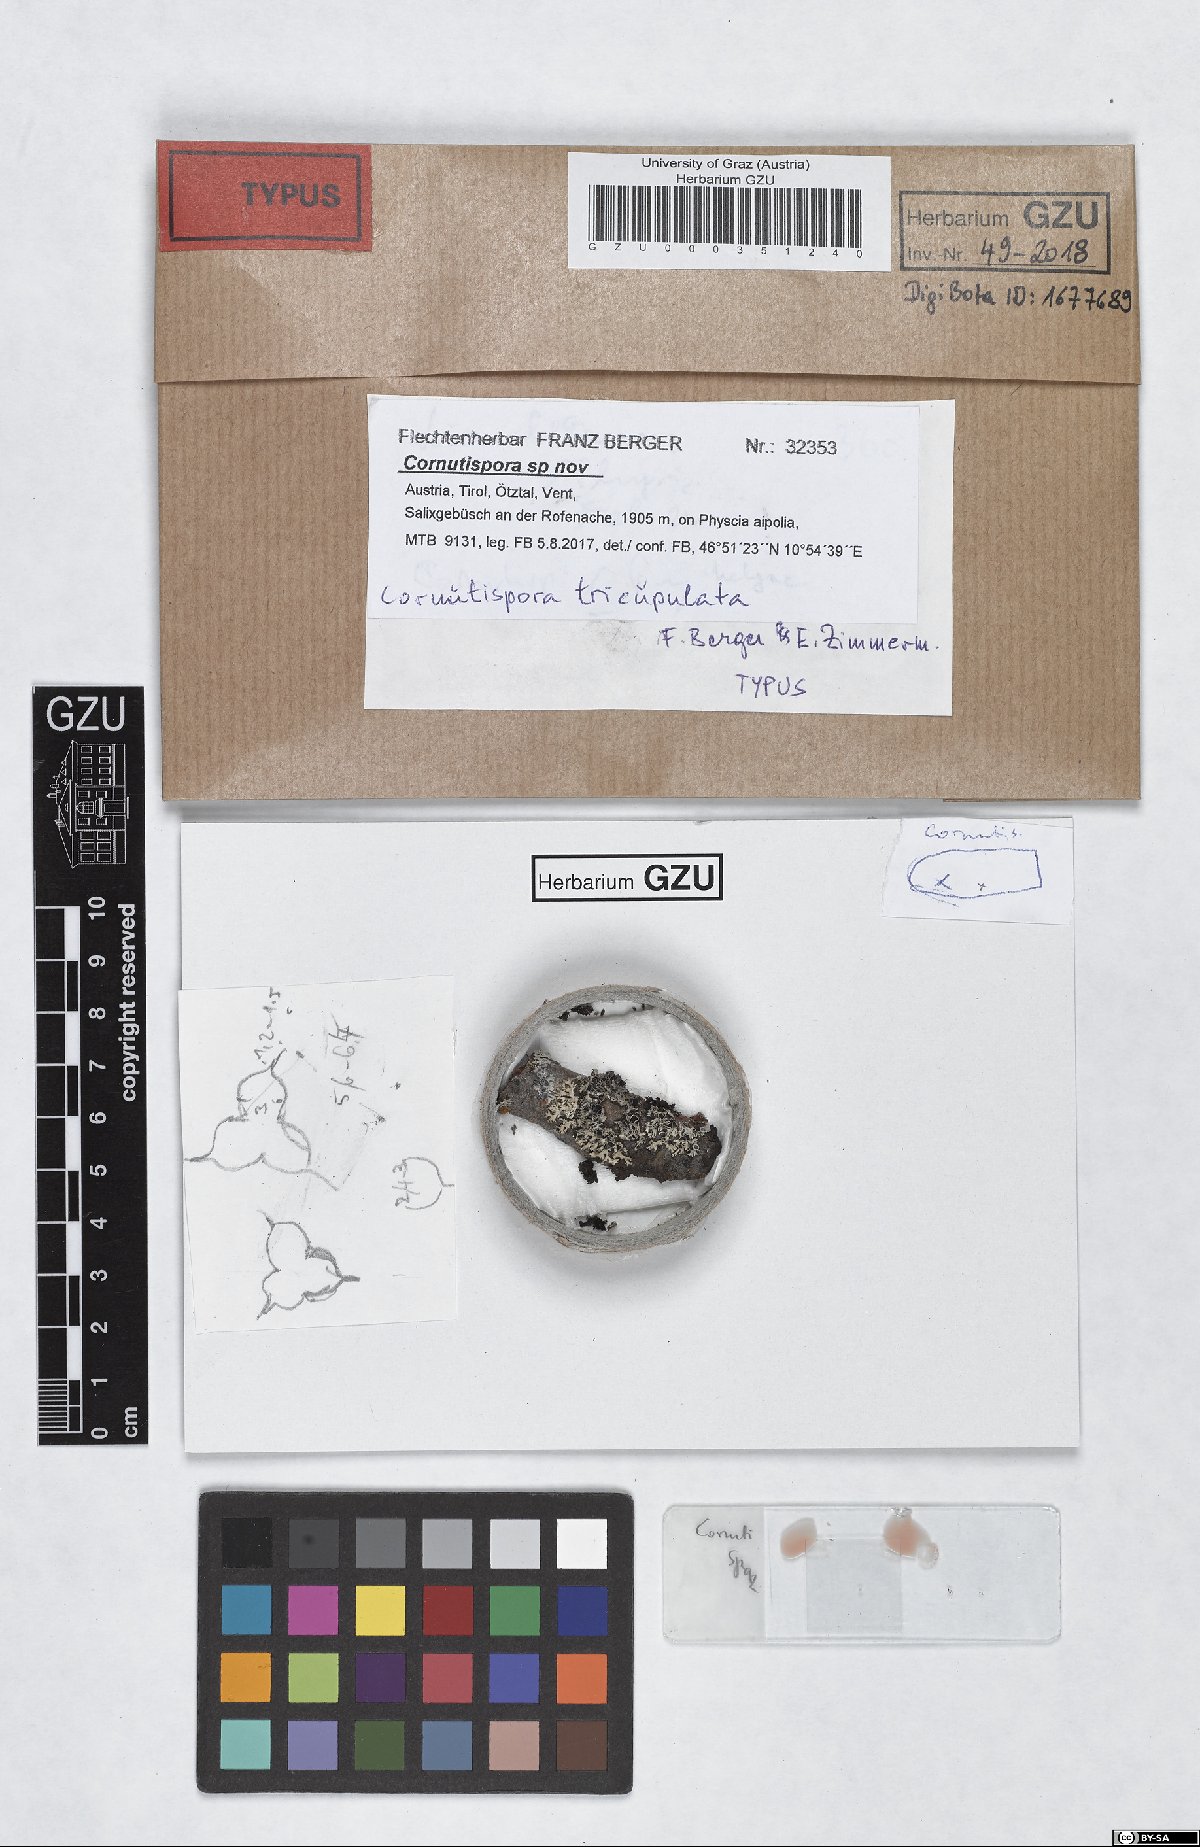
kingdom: Fungi
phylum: Ascomycota
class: Lecanoromycetes
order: Ostropales
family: Spirographaceae
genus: Spirographa
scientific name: Spirographa tricupulata
